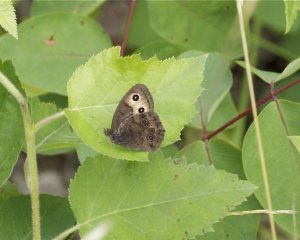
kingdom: Animalia
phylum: Arthropoda
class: Insecta
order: Lepidoptera
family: Nymphalidae
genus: Cercyonis
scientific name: Cercyonis pegala
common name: Common Wood-Nymph
